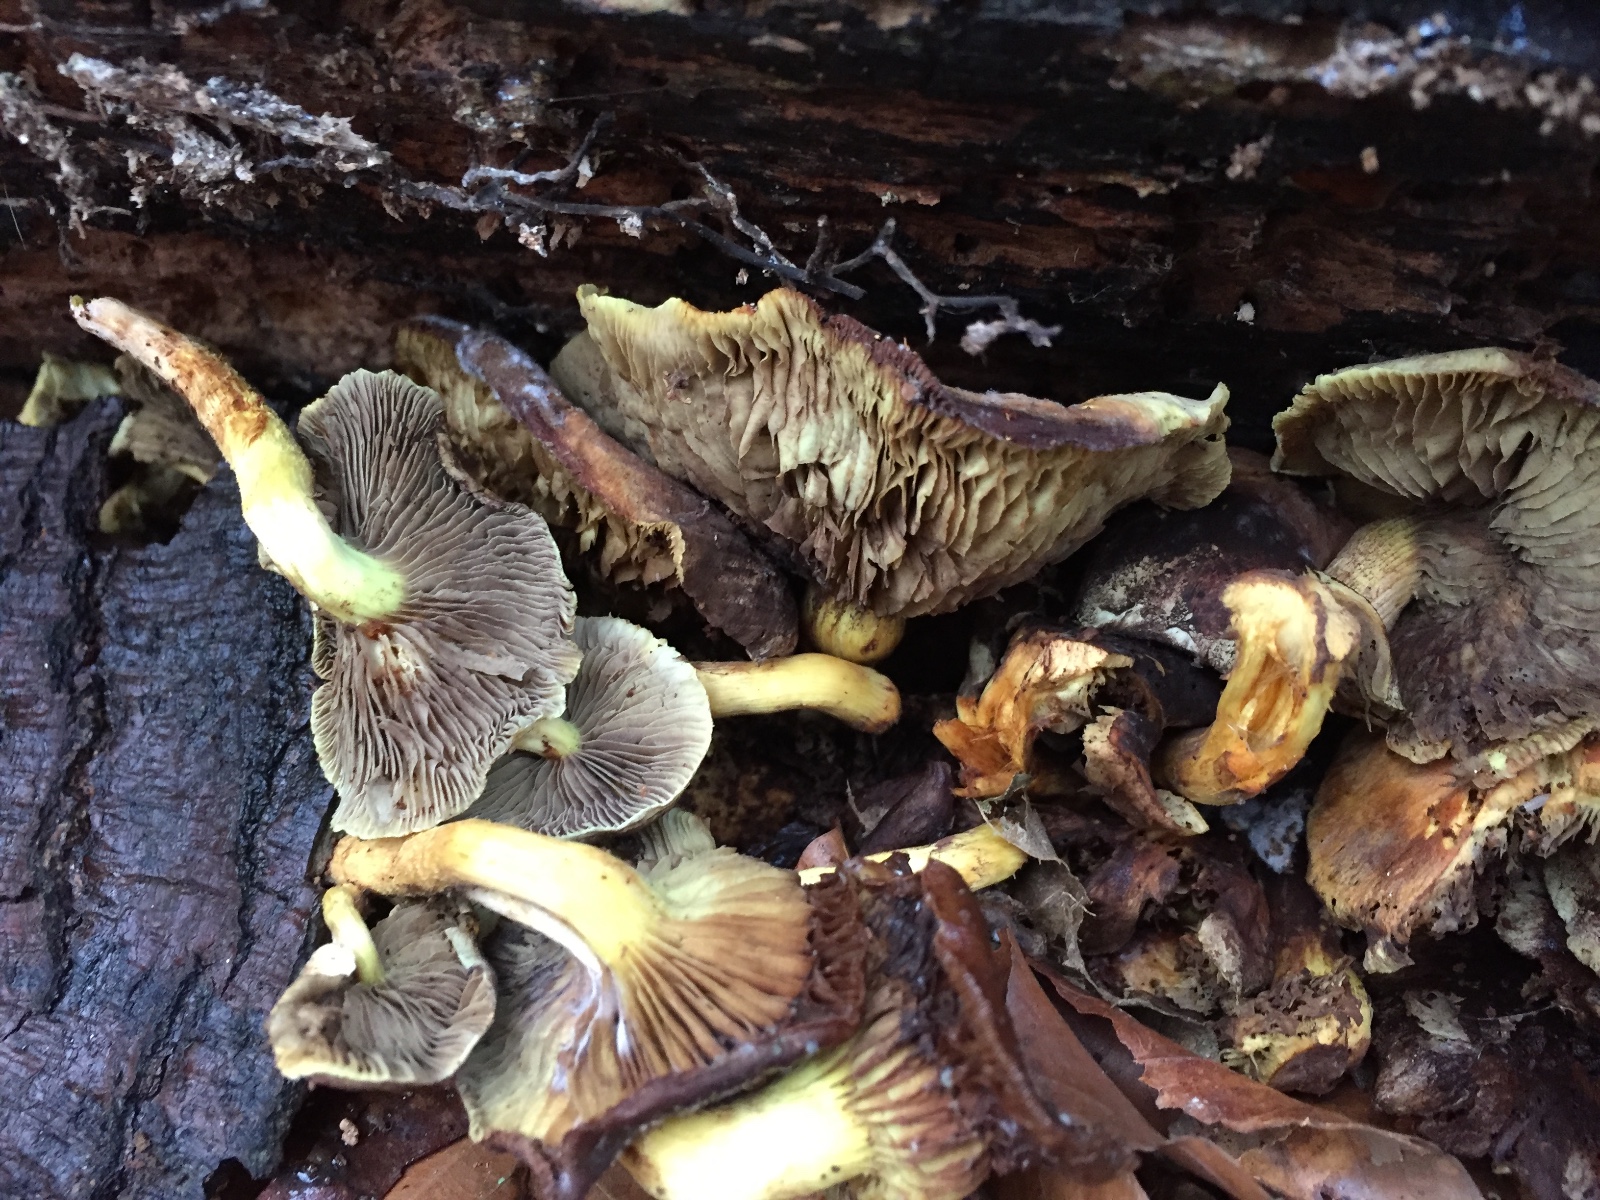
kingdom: Fungi
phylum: Basidiomycota
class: Agaricomycetes
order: Agaricales
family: Strophariaceae
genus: Hypholoma
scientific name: Hypholoma fasciculare
